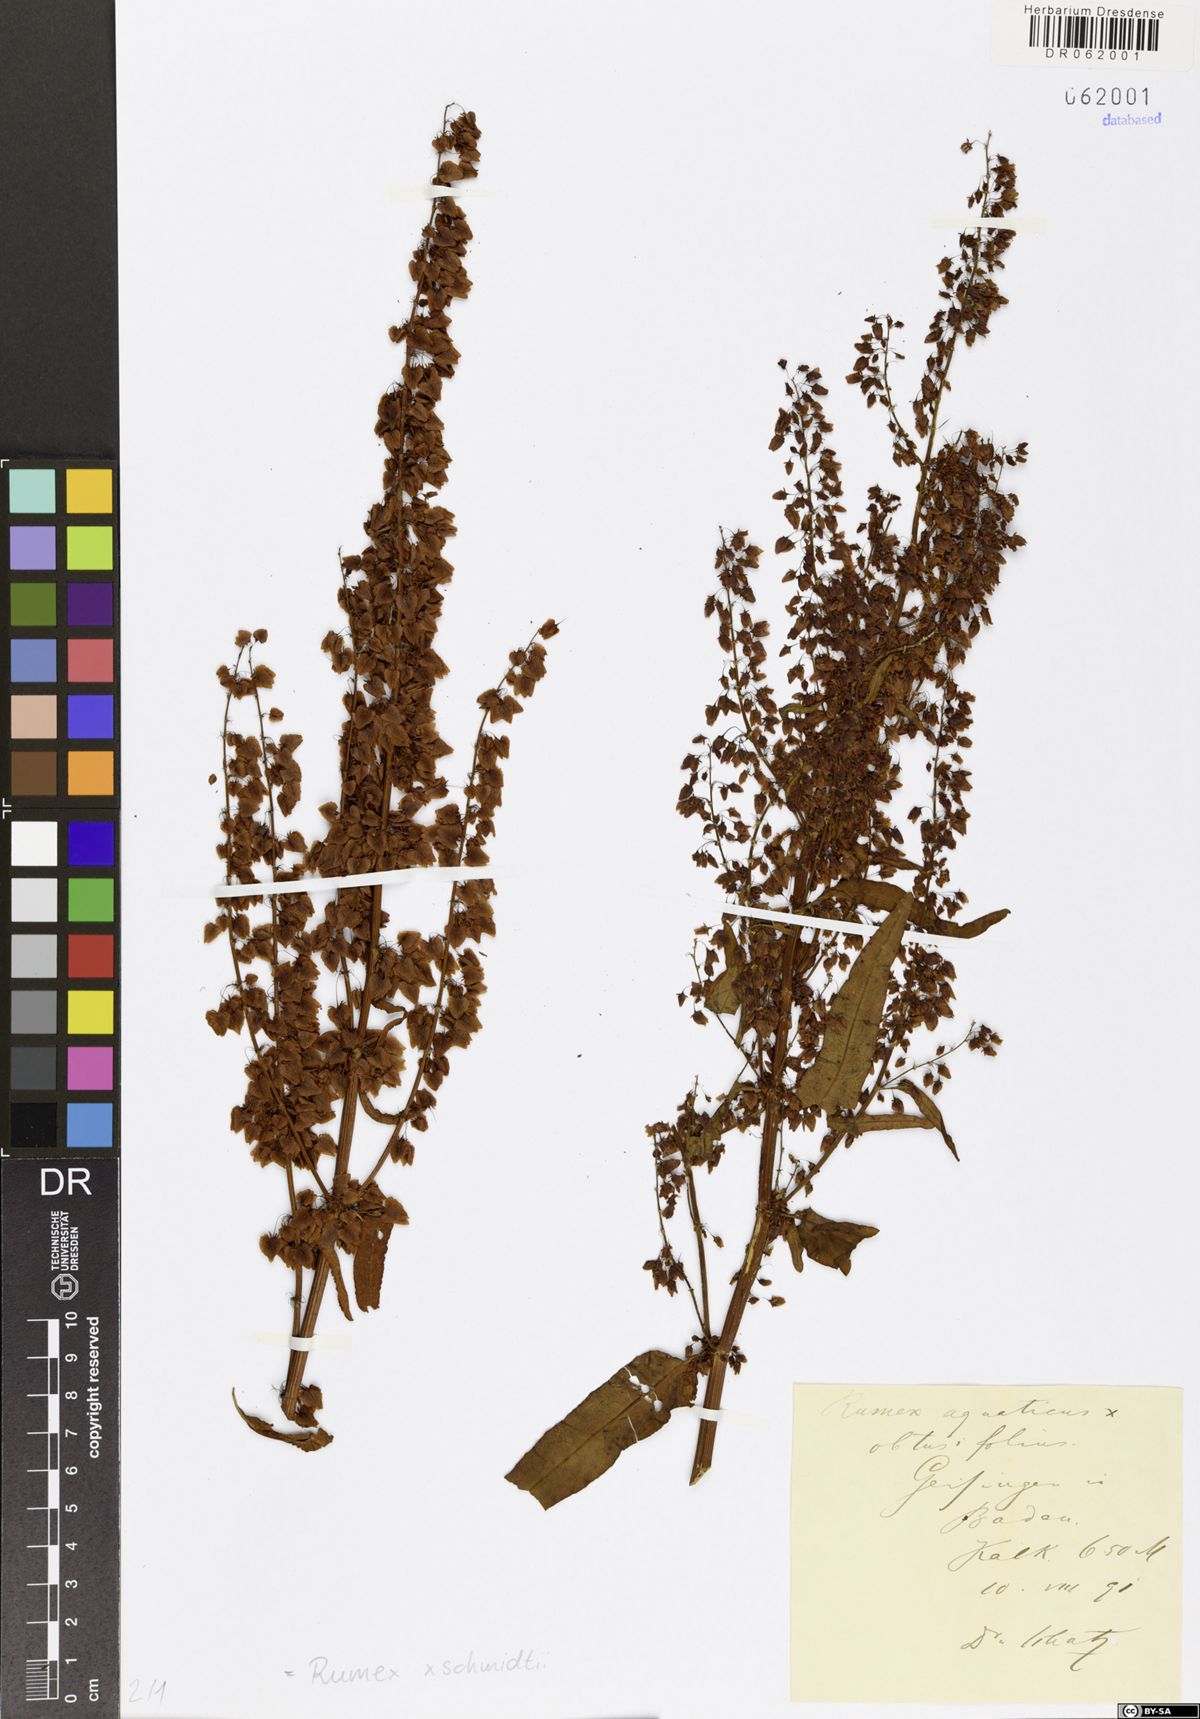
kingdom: Plantae
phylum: Tracheophyta
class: Magnoliopsida
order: Caryophyllales
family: Polygonaceae
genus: Rumex
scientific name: Rumex platyphyllus
